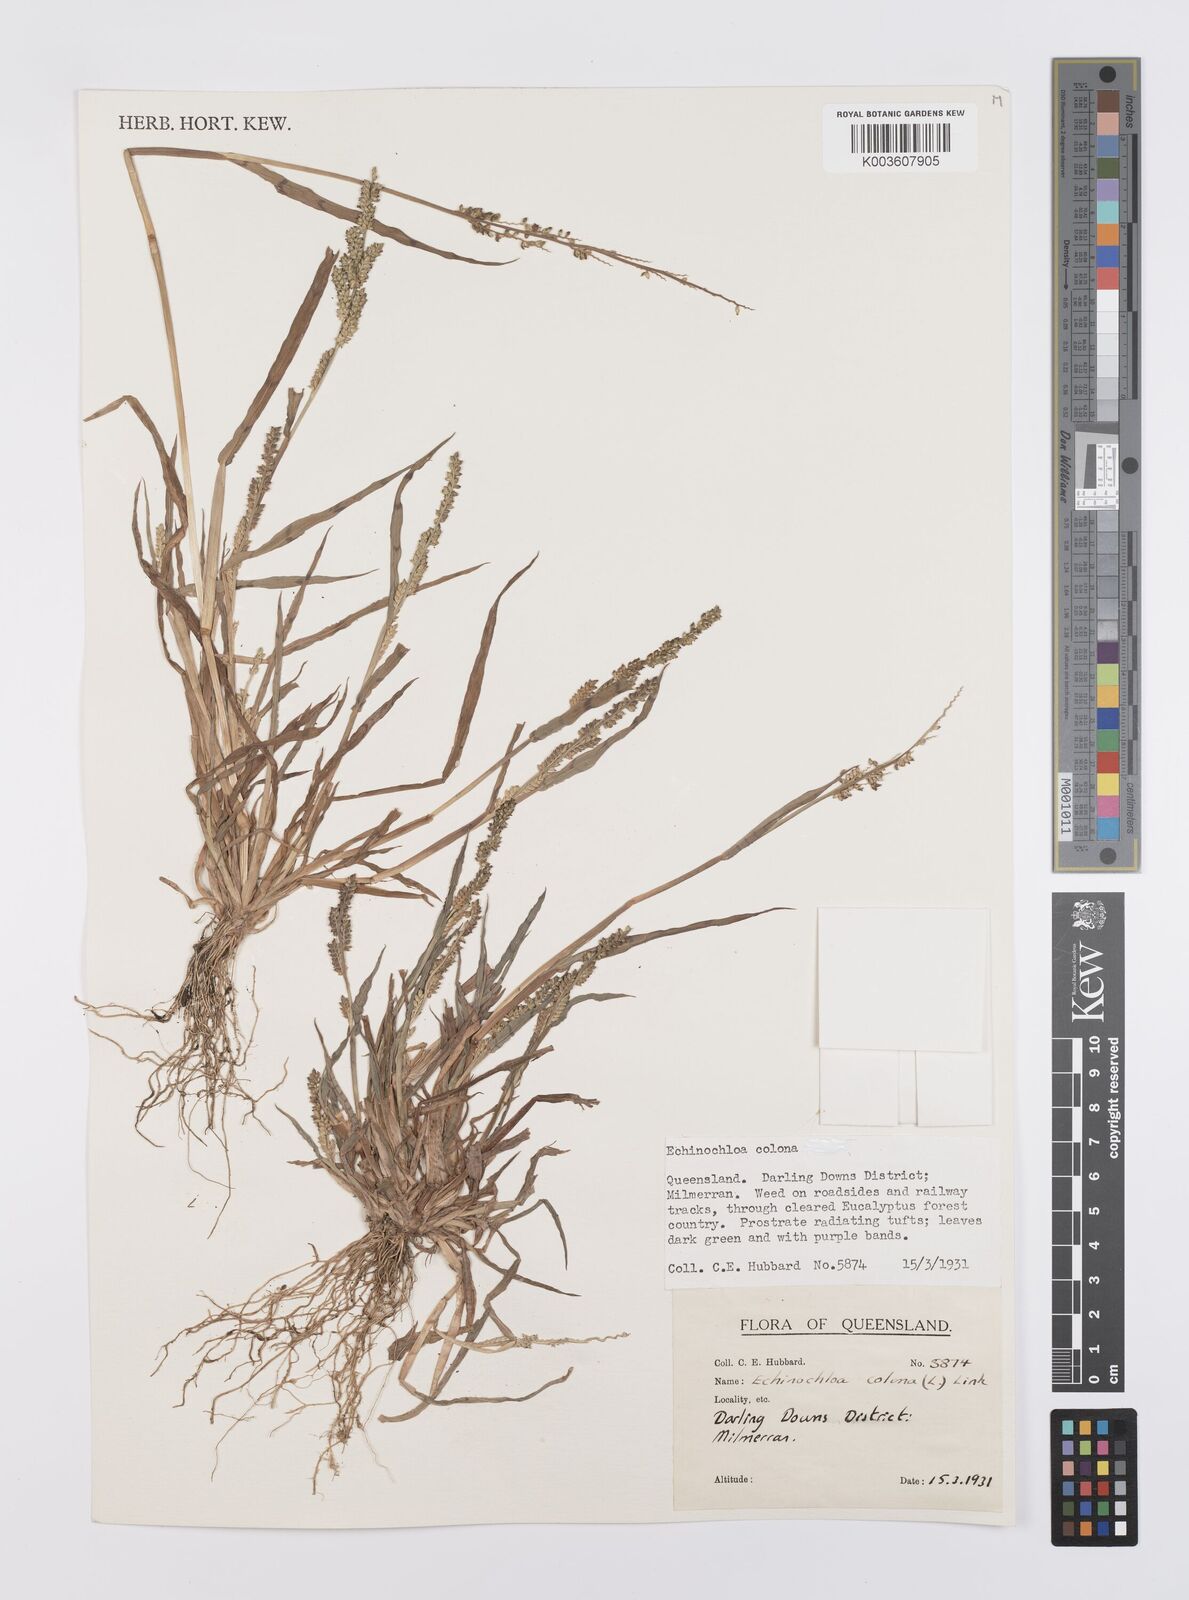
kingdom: Plantae
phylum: Tracheophyta
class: Liliopsida
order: Poales
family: Poaceae
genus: Echinochloa
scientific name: Echinochloa colonum
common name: Jungle rice
